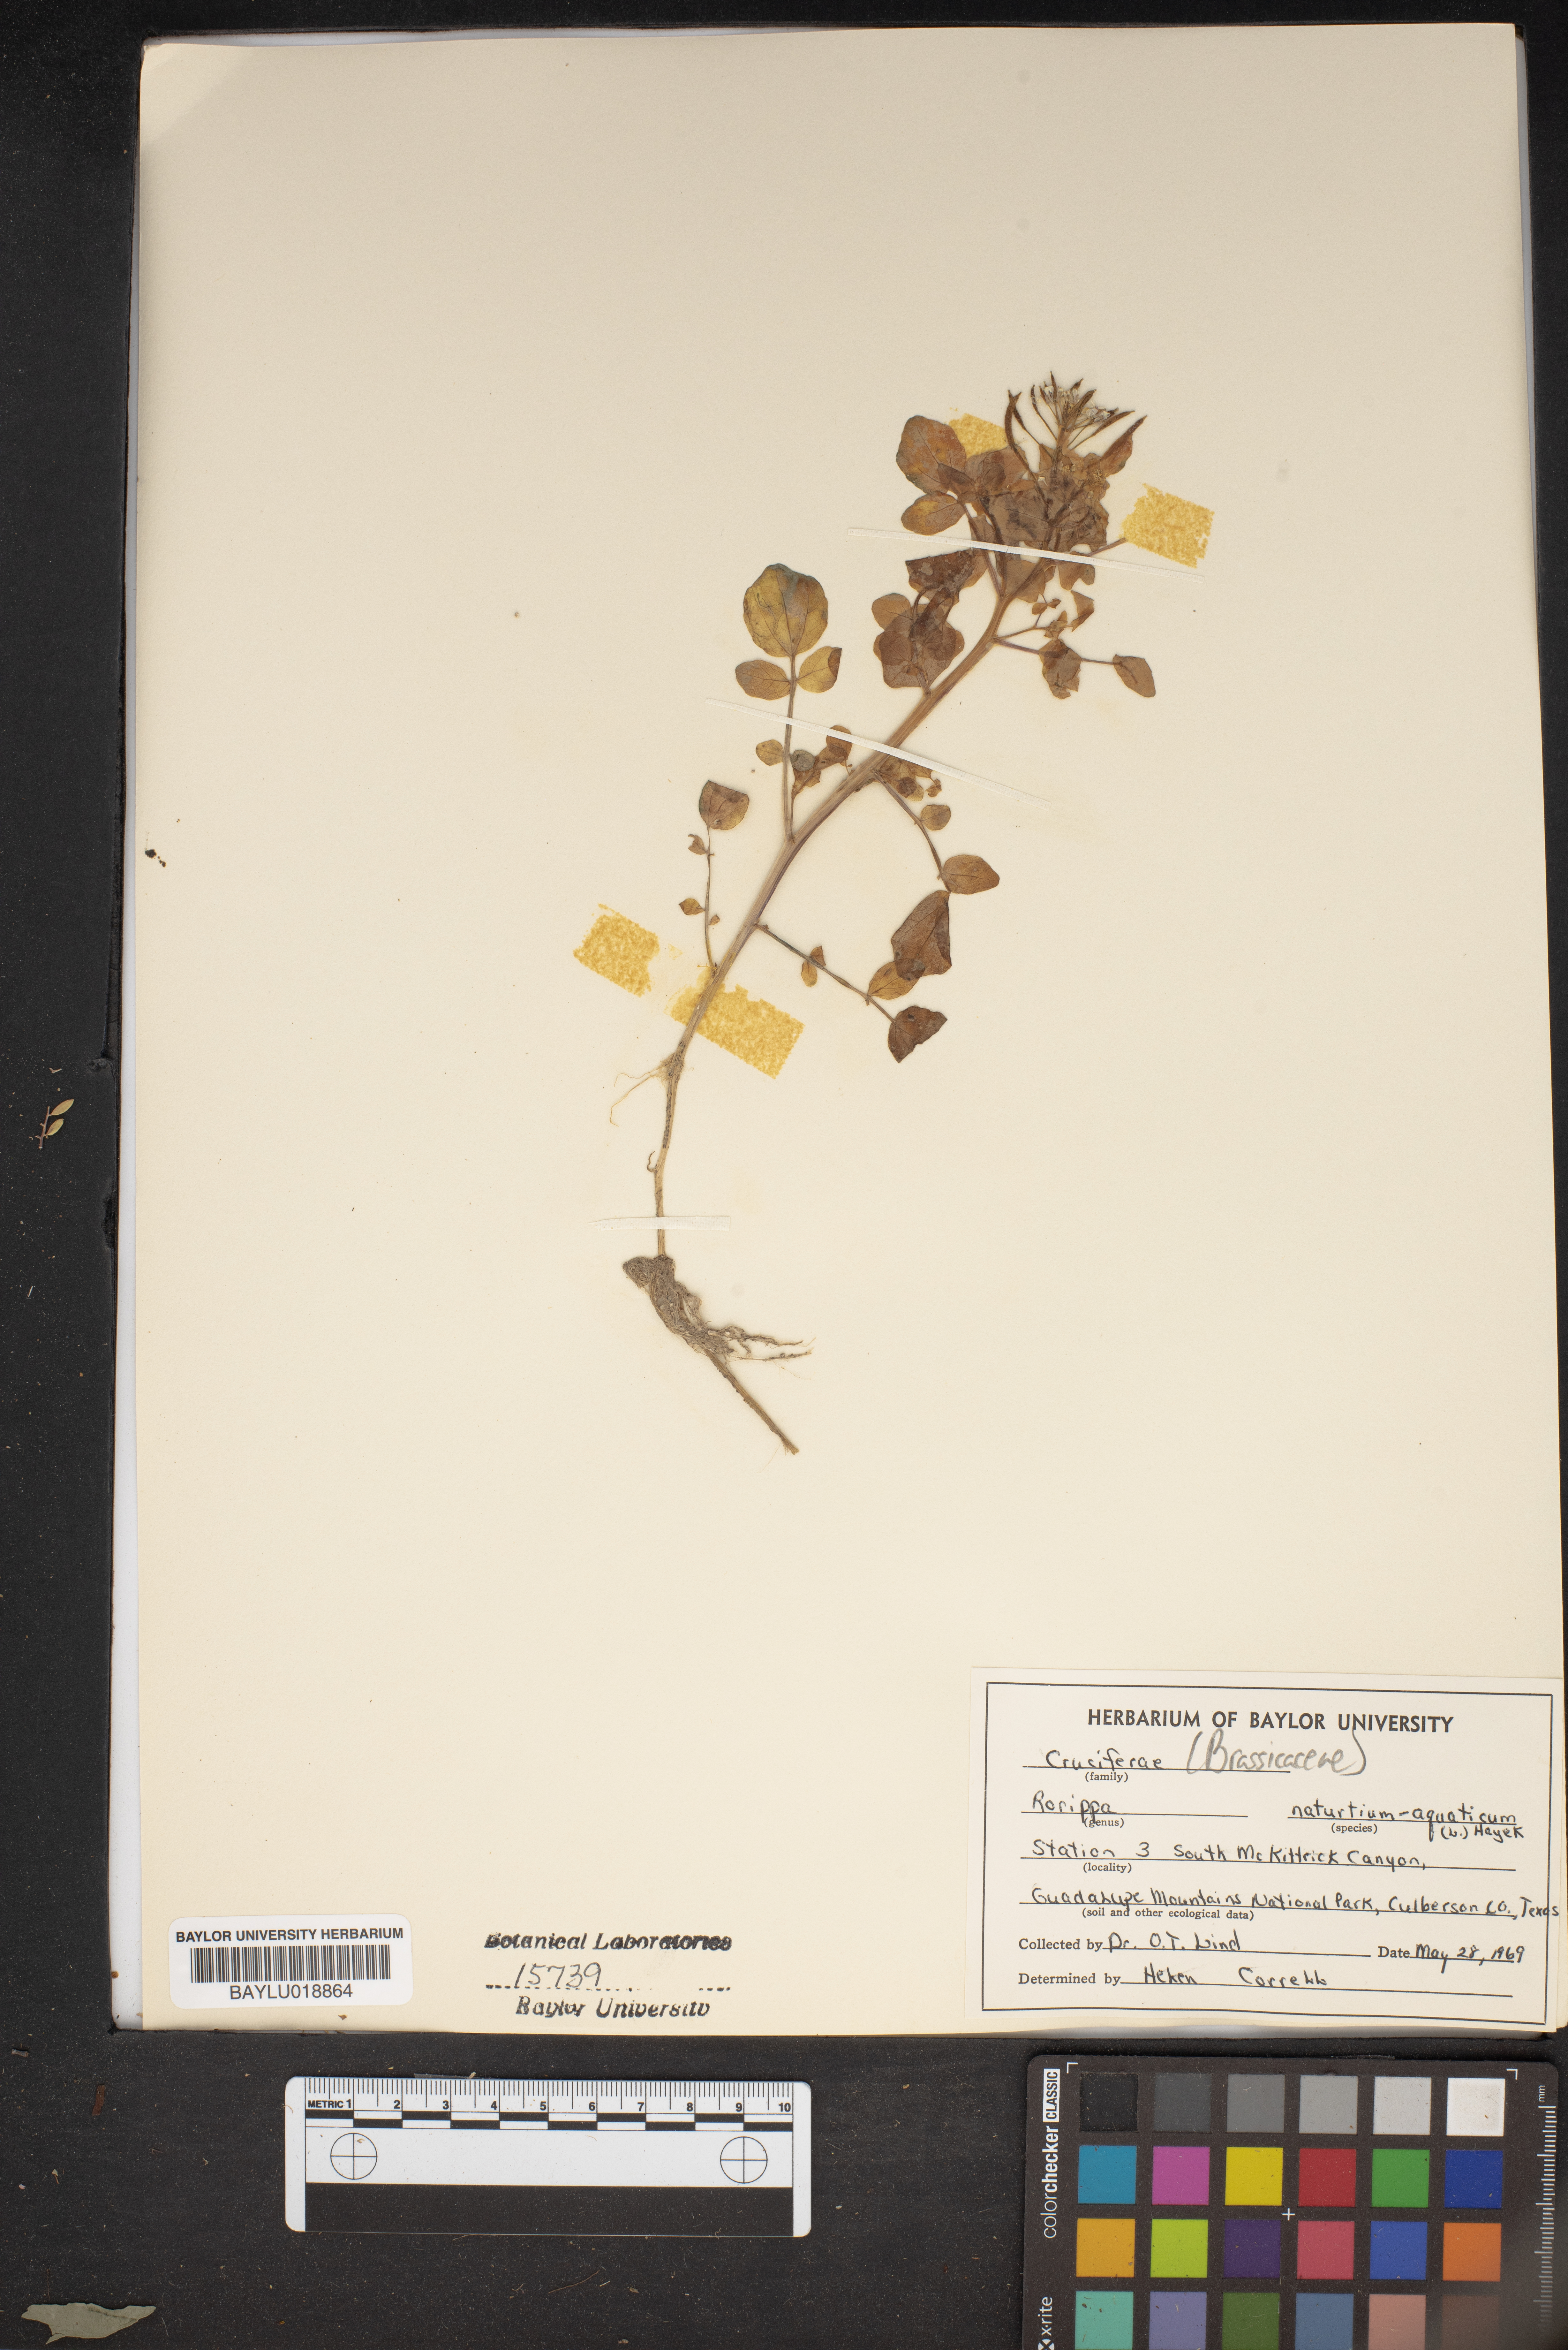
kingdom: Plantae
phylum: Tracheophyta
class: Magnoliopsida
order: Brassicales
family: Brassicaceae
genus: Nasturtium
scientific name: Nasturtium officinale
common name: Watercress
